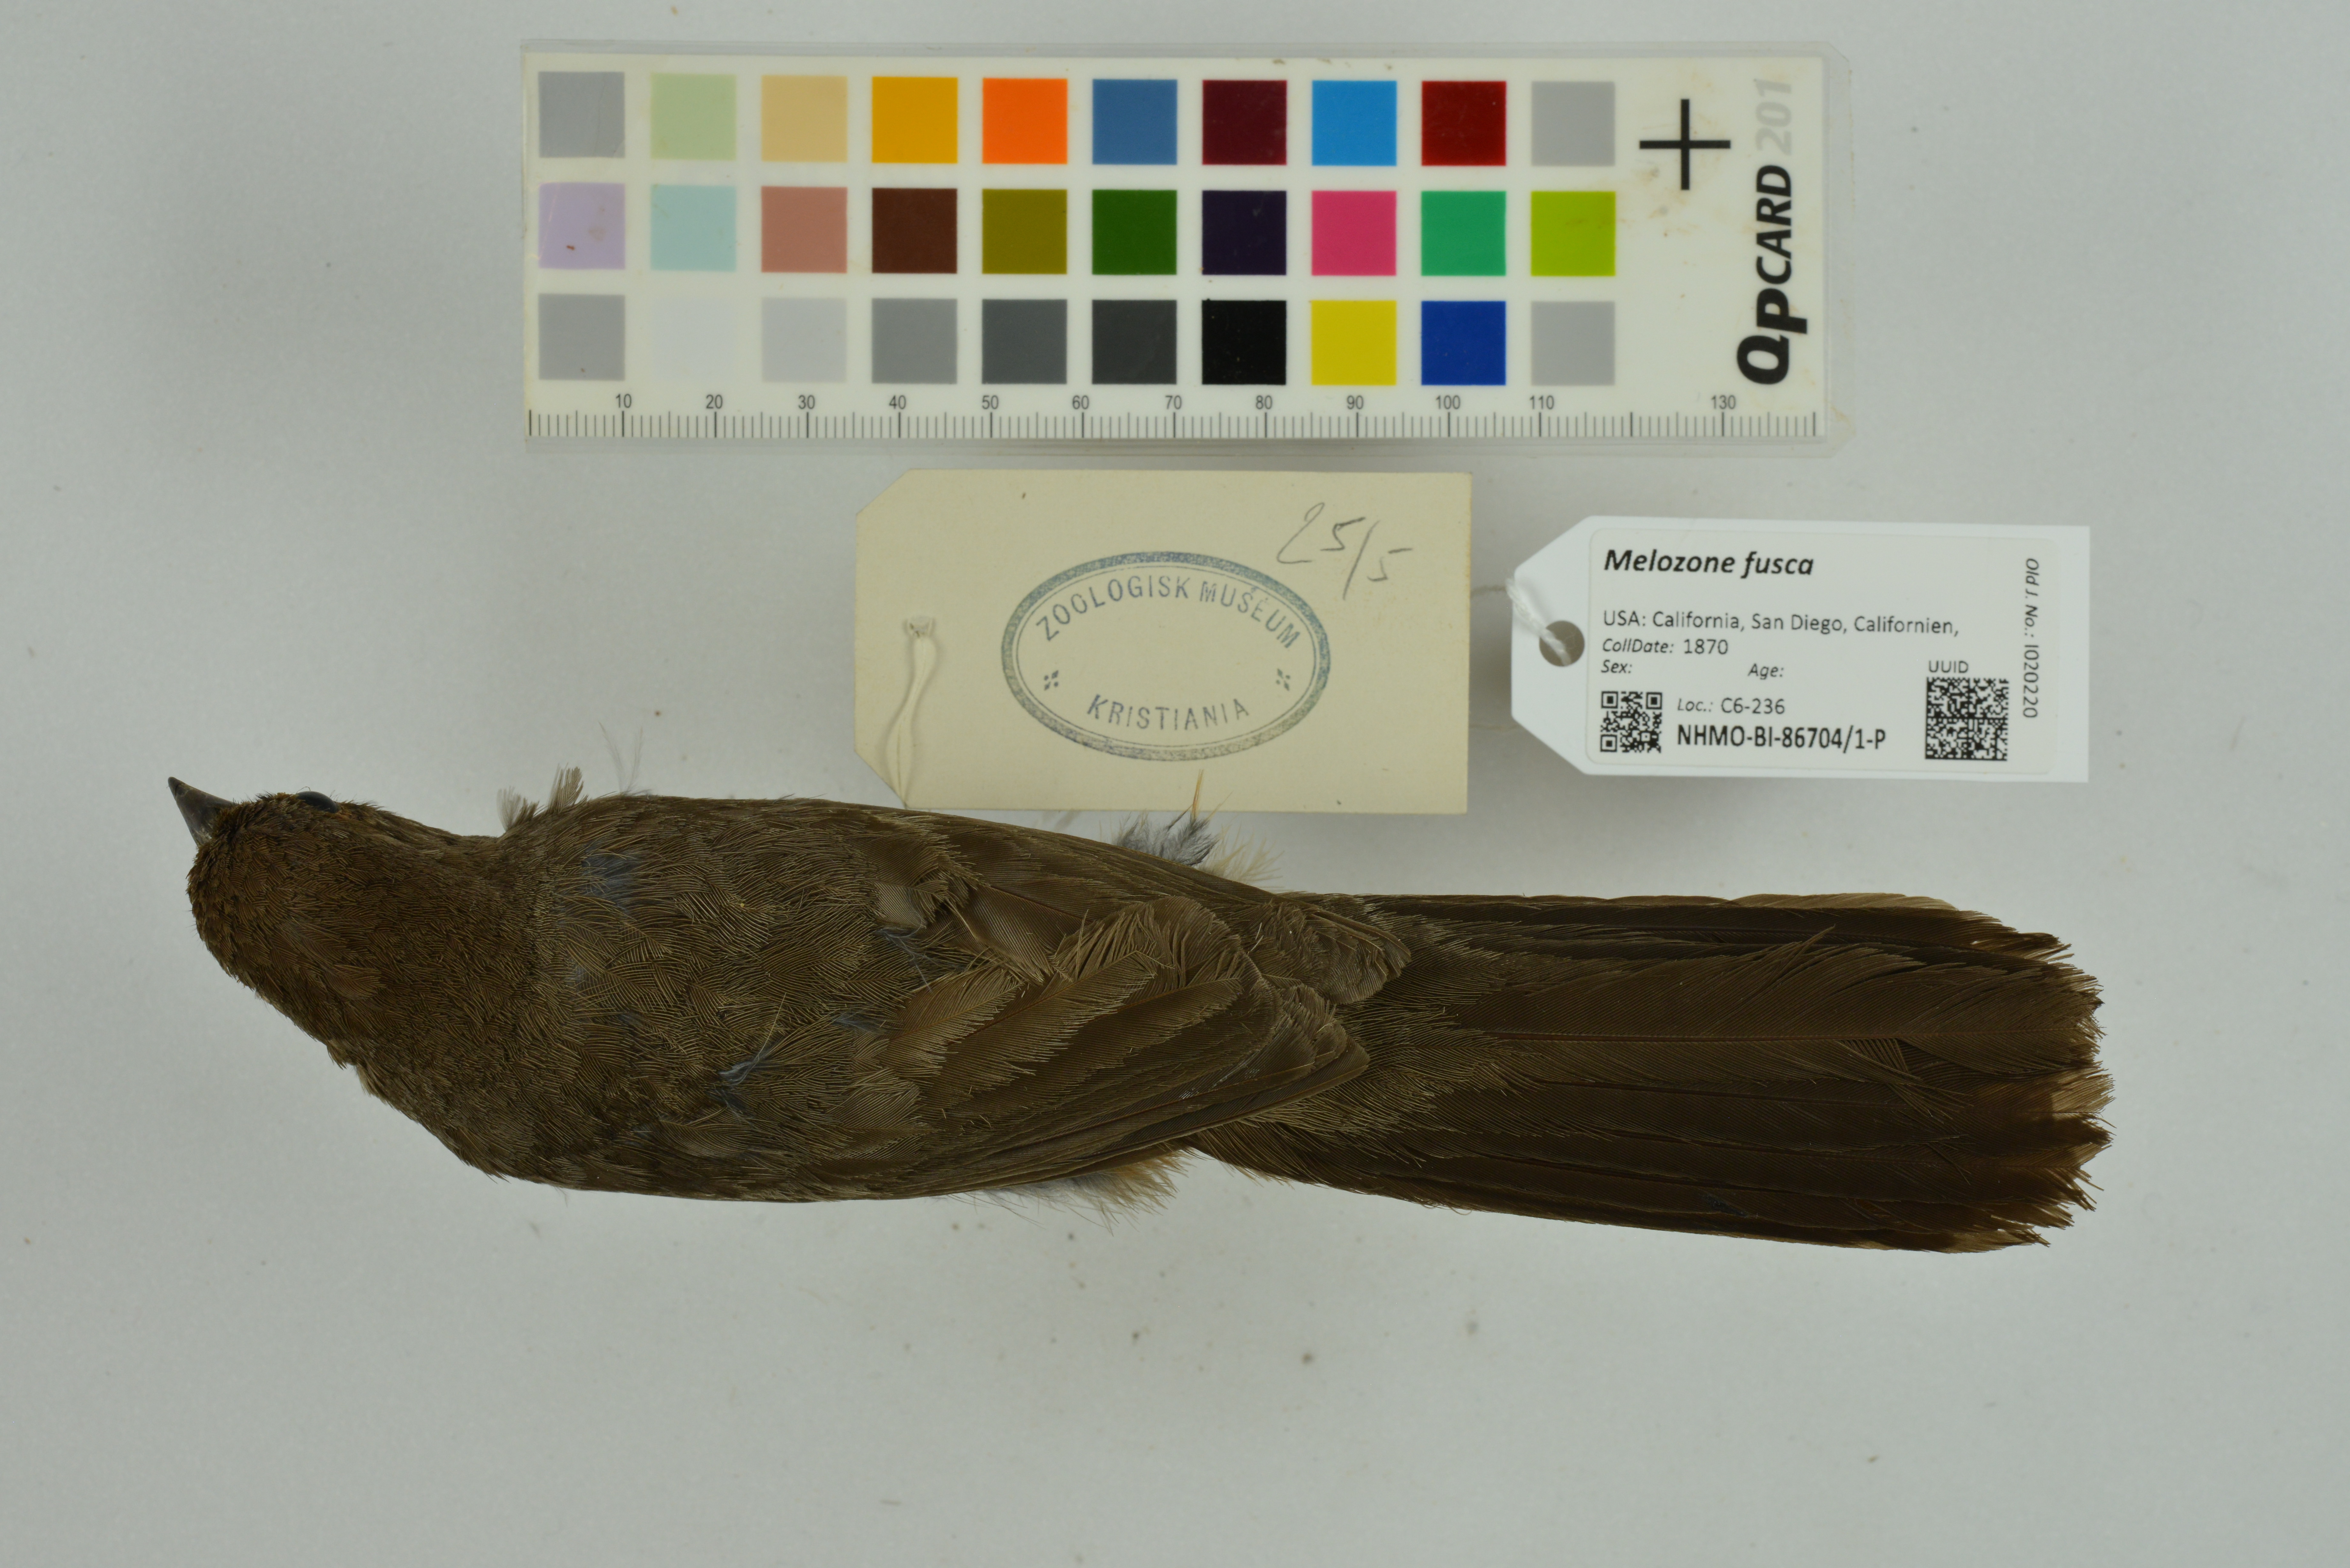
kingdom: Animalia
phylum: Chordata
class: Aves
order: Passeriformes
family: Passerellidae
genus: Melozone
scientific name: Melozone fusca
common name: Canyon towhee
